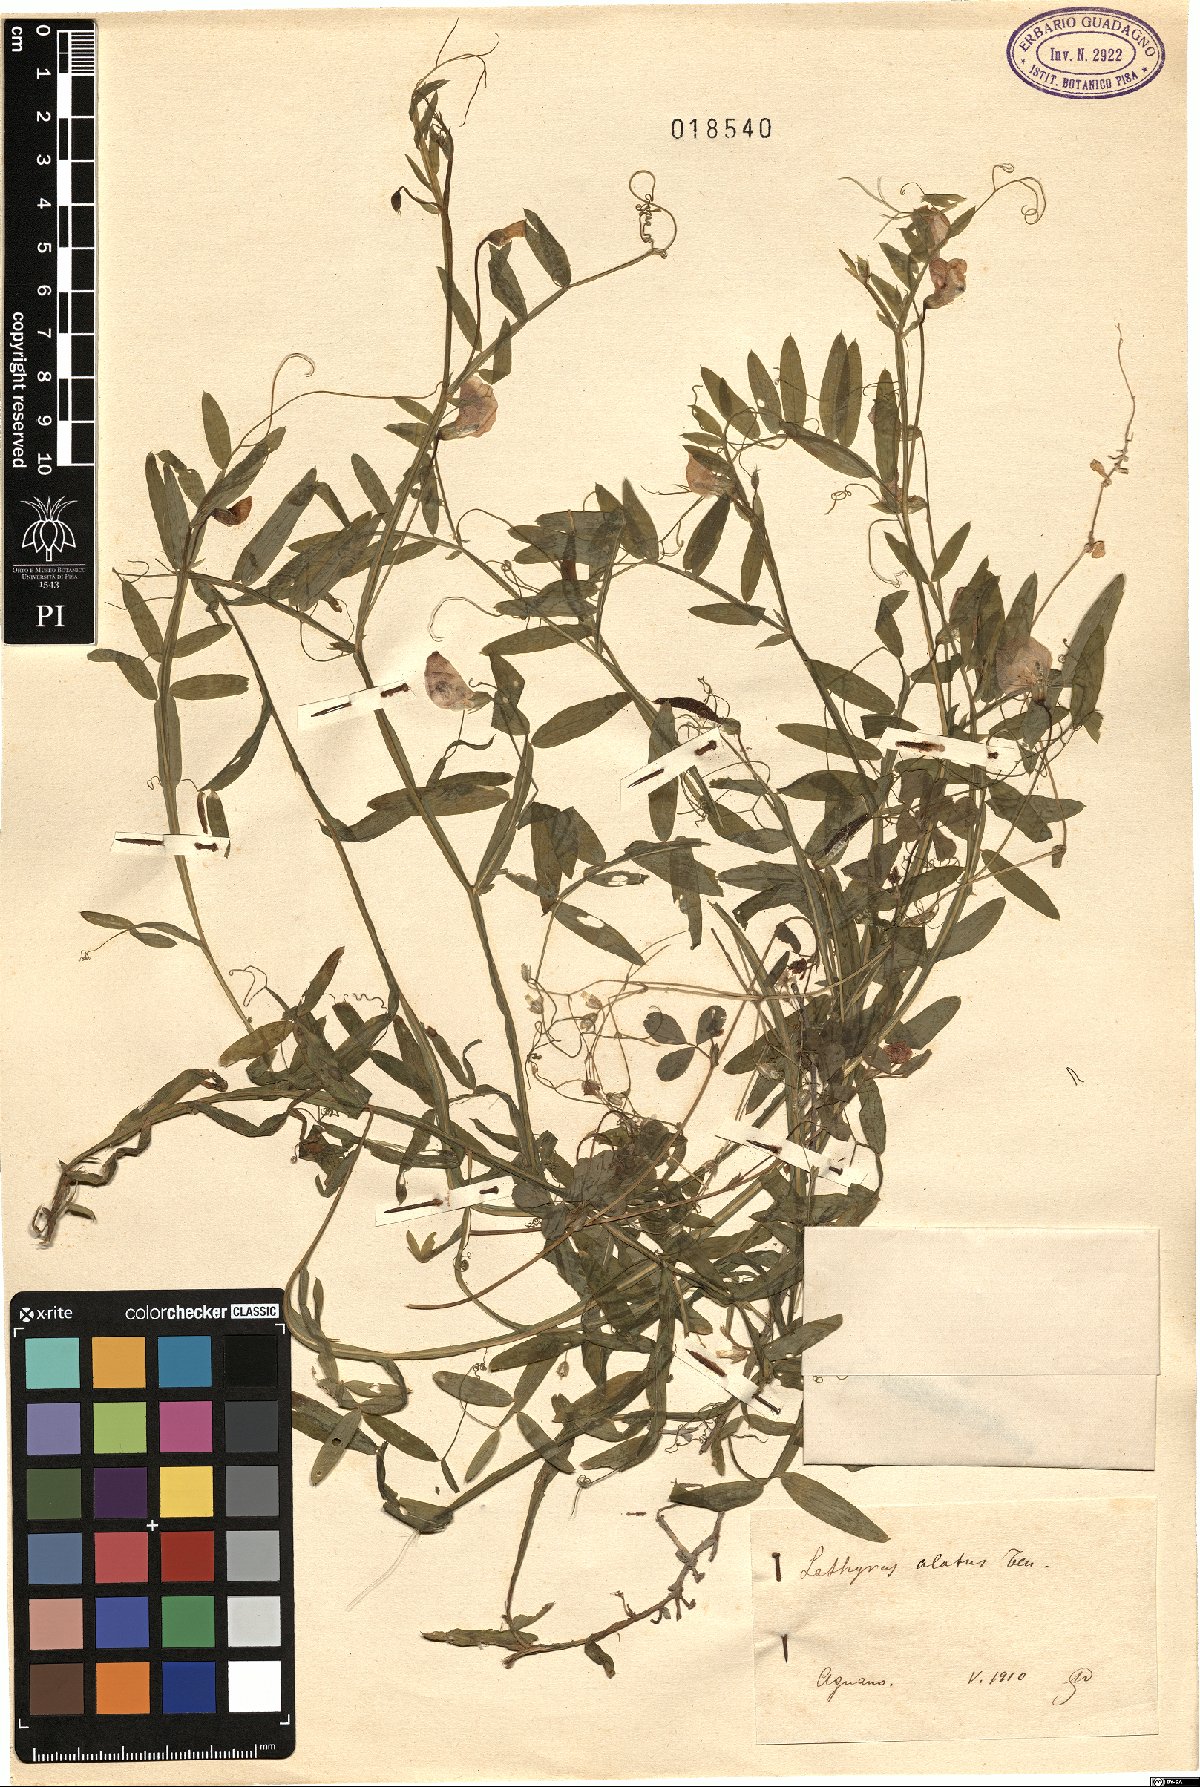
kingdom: Plantae
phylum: Tracheophyta
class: Magnoliopsida
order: Fabales
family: Fabaceae
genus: Lathyrus
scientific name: Lathyrus komarovii
